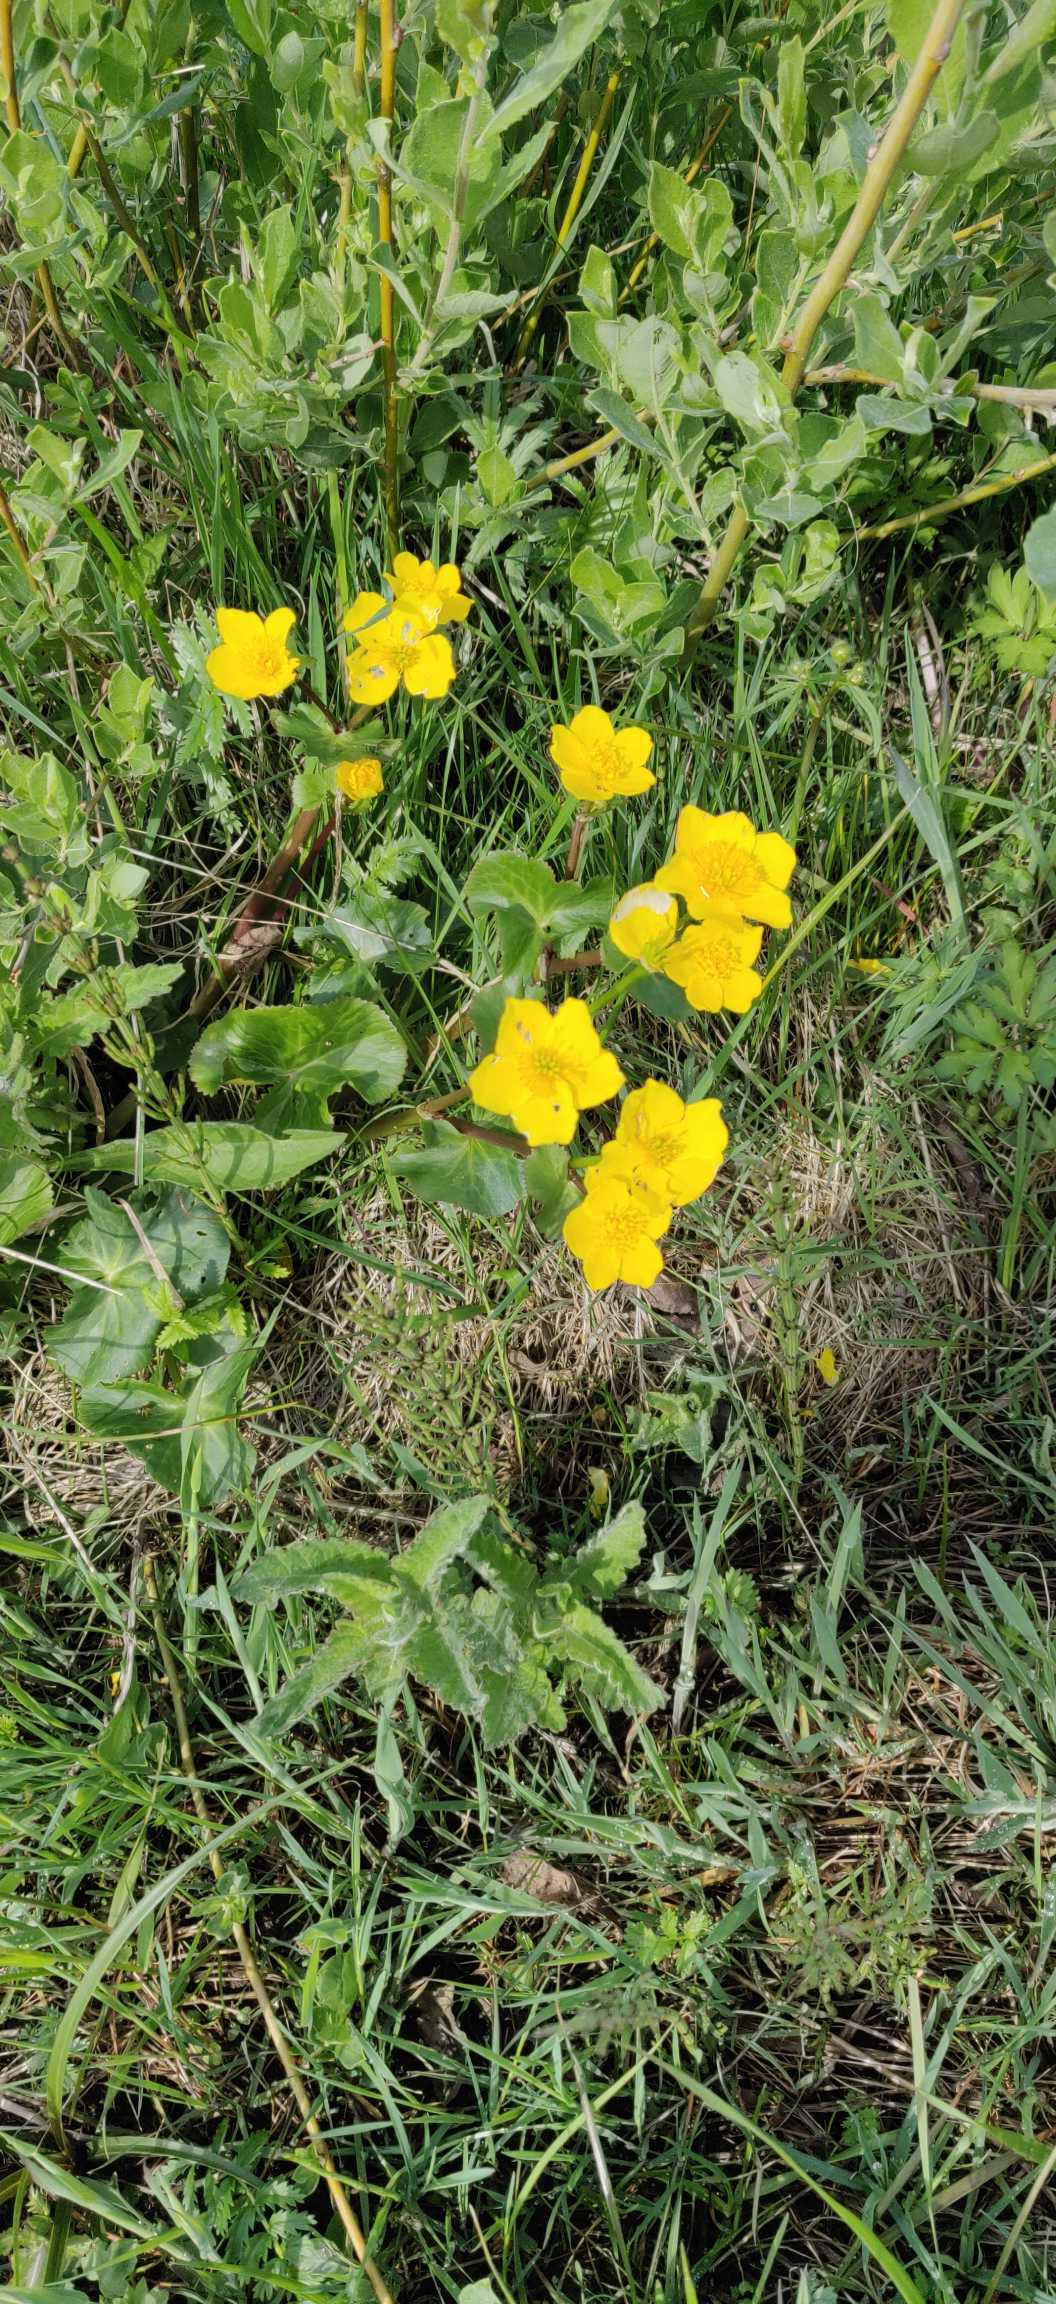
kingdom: Plantae
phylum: Tracheophyta
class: Magnoliopsida
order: Ranunculales
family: Ranunculaceae
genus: Caltha
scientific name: Caltha palustris
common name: Eng-kabbeleje
